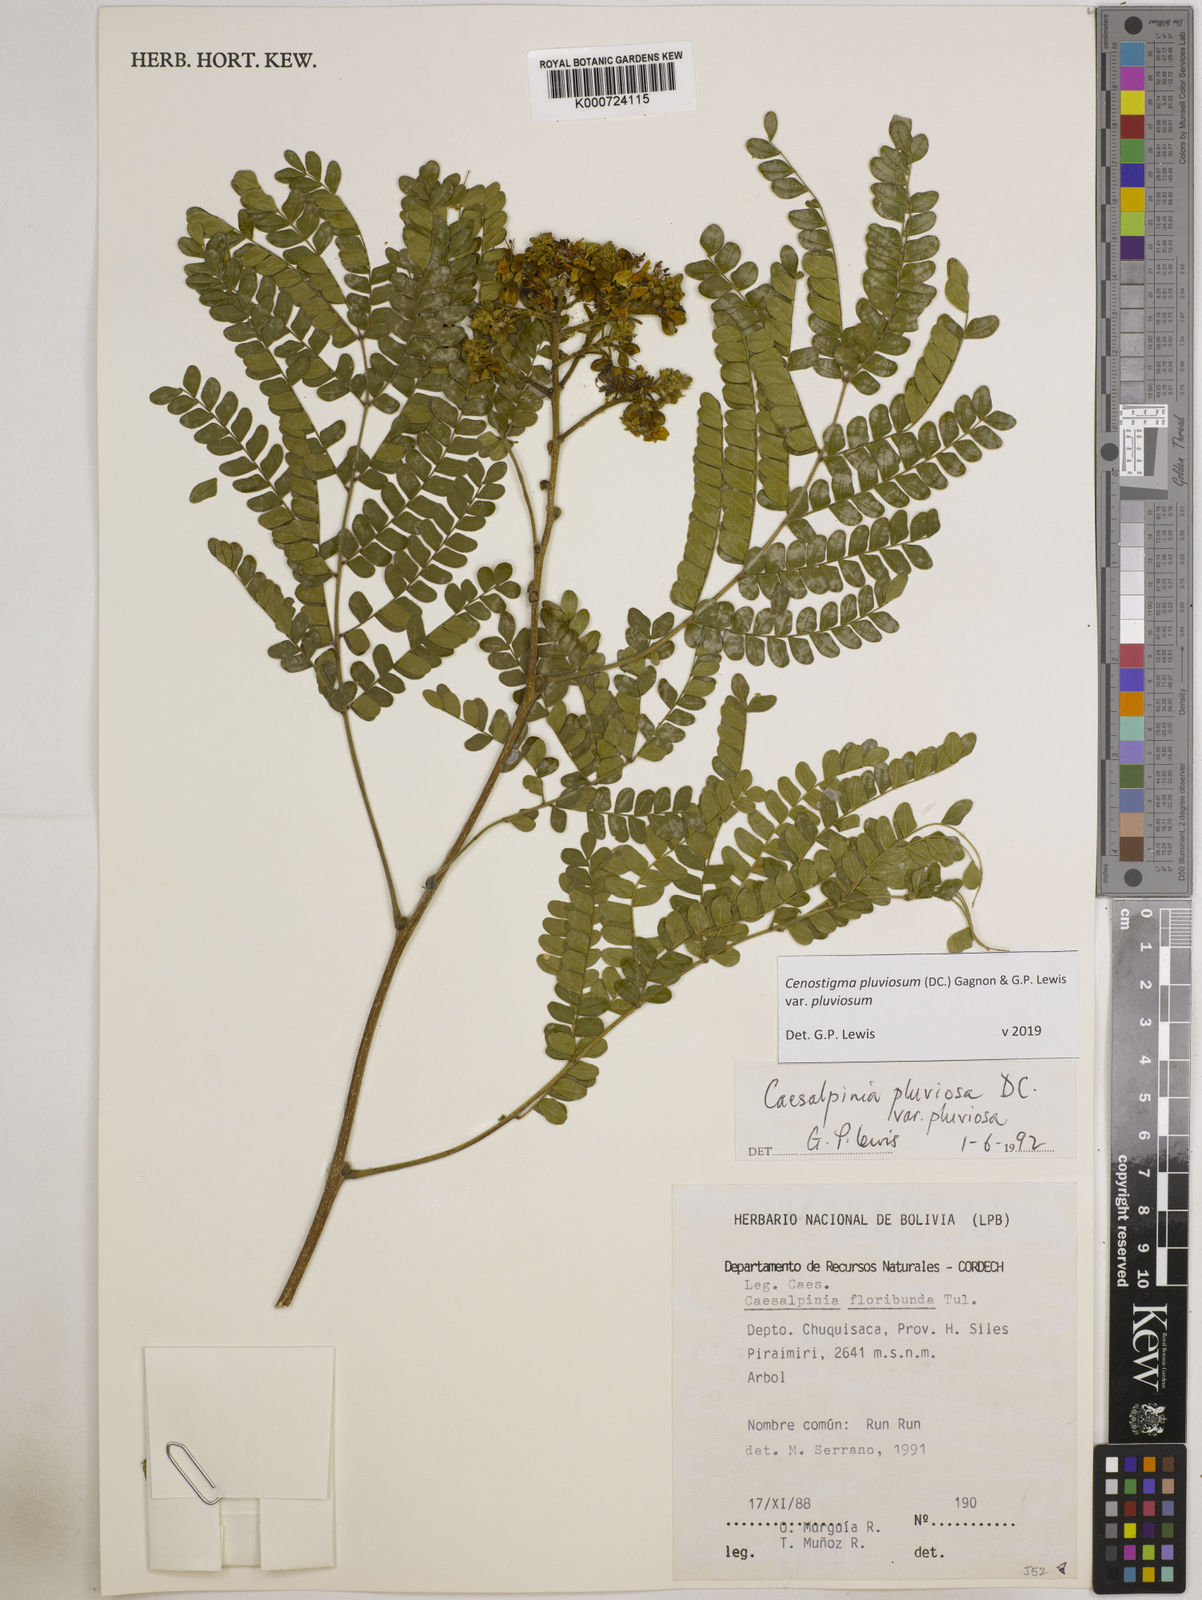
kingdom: Plantae
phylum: Tracheophyta
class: Magnoliopsida
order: Fabales
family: Fabaceae
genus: Cenostigma
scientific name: Cenostigma pluviosum
